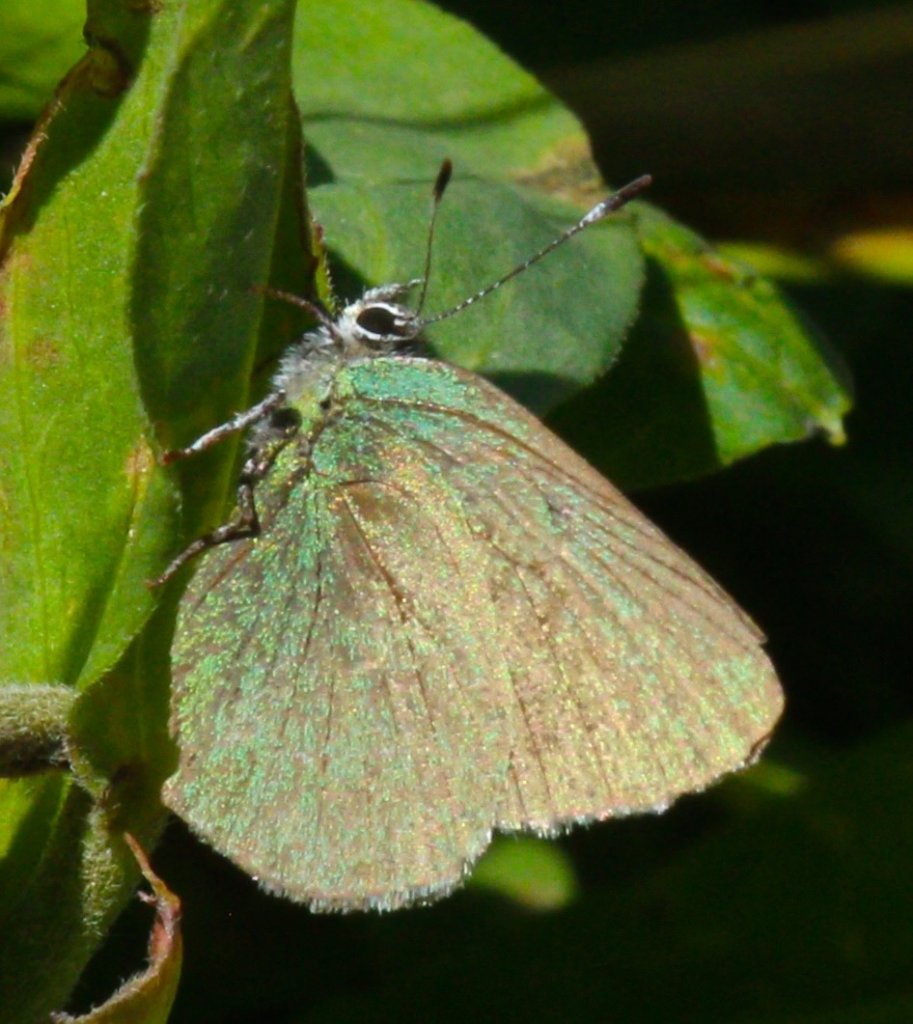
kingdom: Animalia
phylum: Arthropoda
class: Insecta
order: Lepidoptera
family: Lycaenidae
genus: Callophrys
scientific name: Callophrys affinis
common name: Western Green Hairstreak
